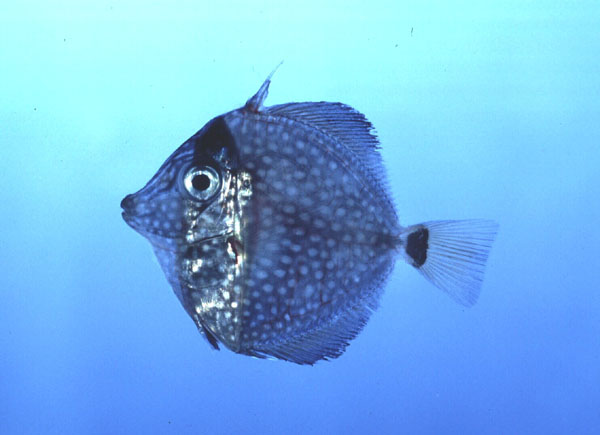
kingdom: Animalia
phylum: Chordata
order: Perciformes
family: Acanthuridae
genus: Zebrasoma
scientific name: Zebrasoma gemmatum
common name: Gem surgeonfish
